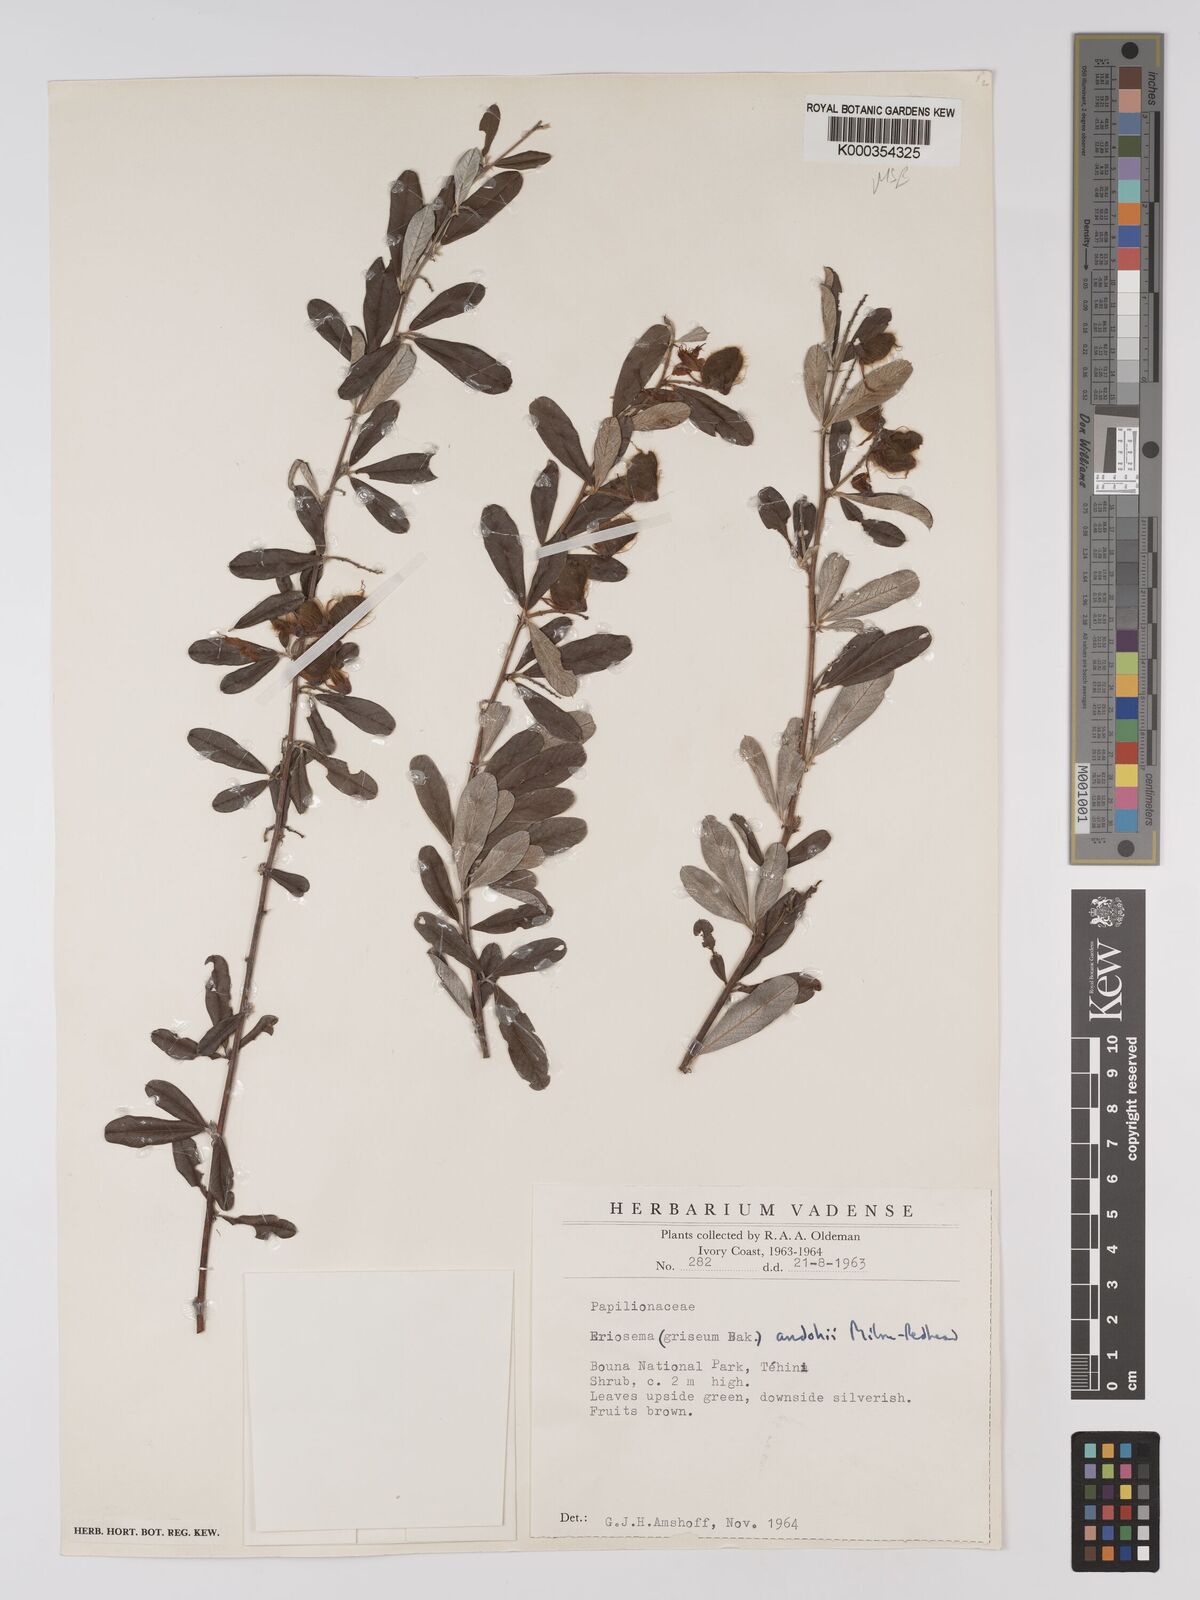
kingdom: Plantae
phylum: Tracheophyta
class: Magnoliopsida
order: Fabales
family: Fabaceae
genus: Eriosema
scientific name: Eriosema andohii
